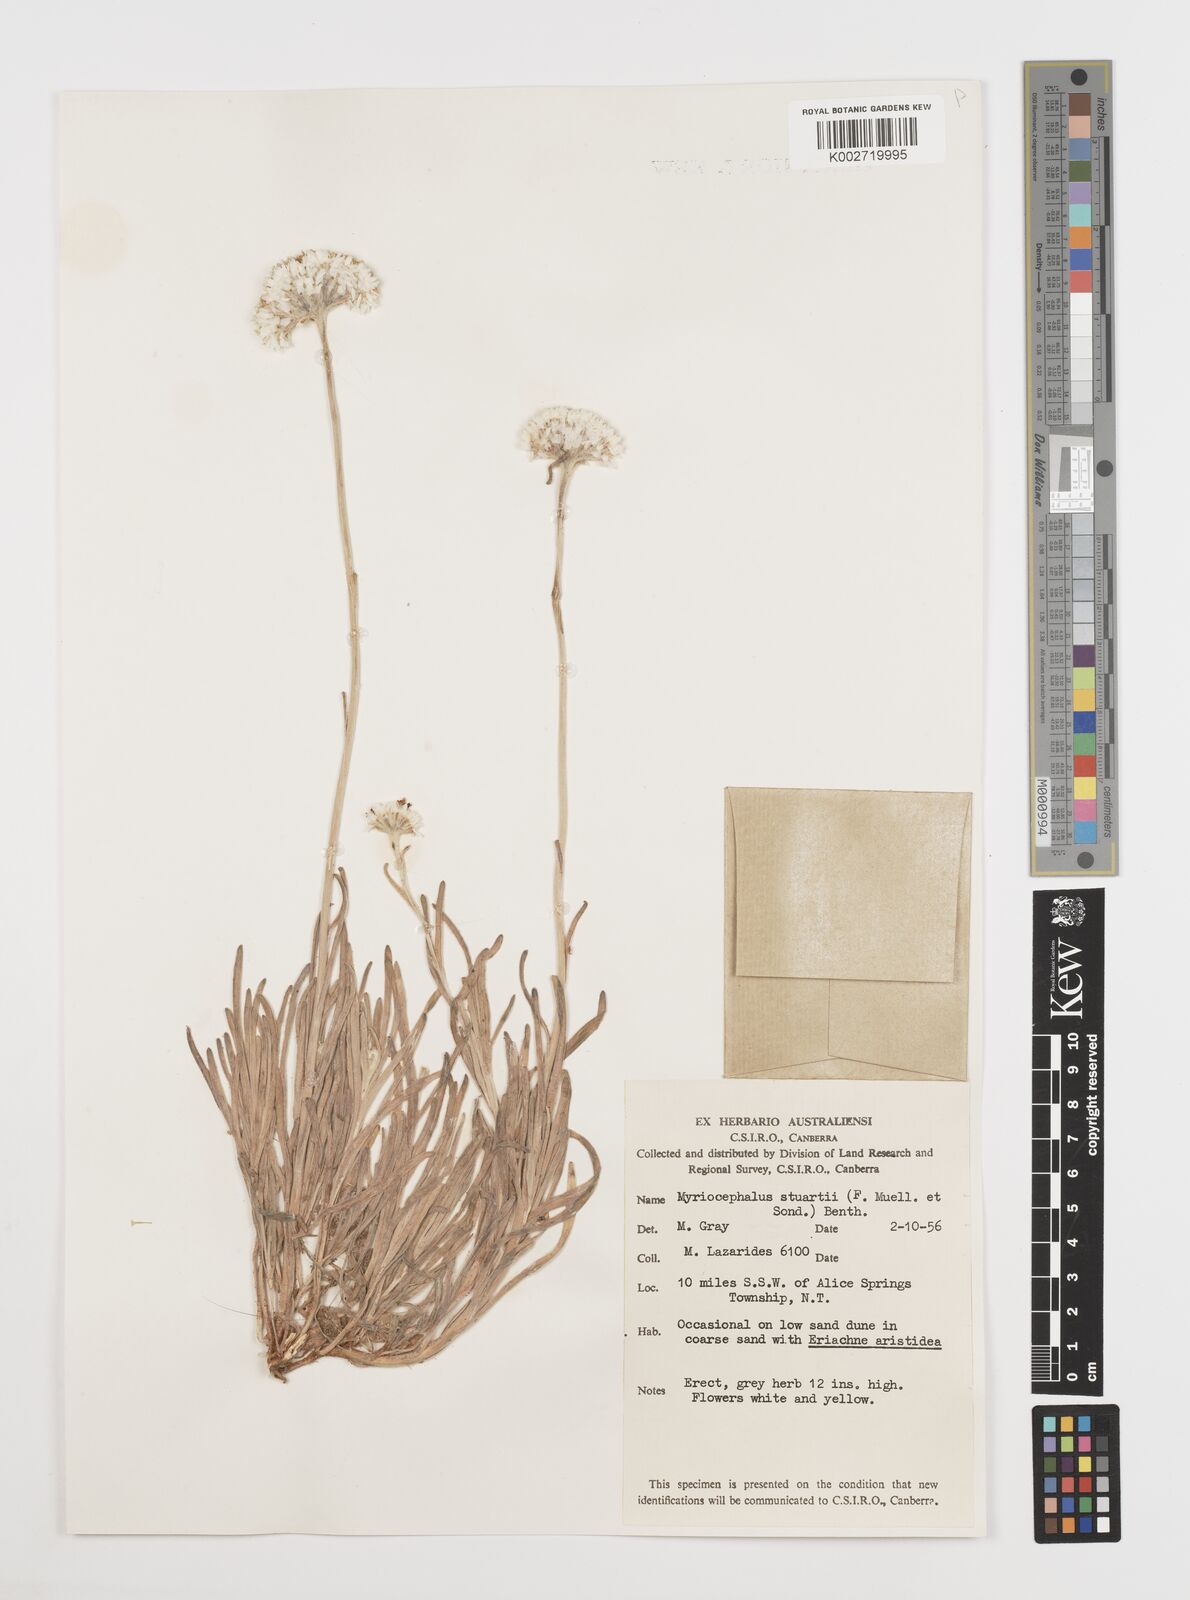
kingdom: Plantae
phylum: Tracheophyta
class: Magnoliopsida
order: Asterales
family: Asteraceae
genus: Polycalymma
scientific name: Polycalymma stuartii
